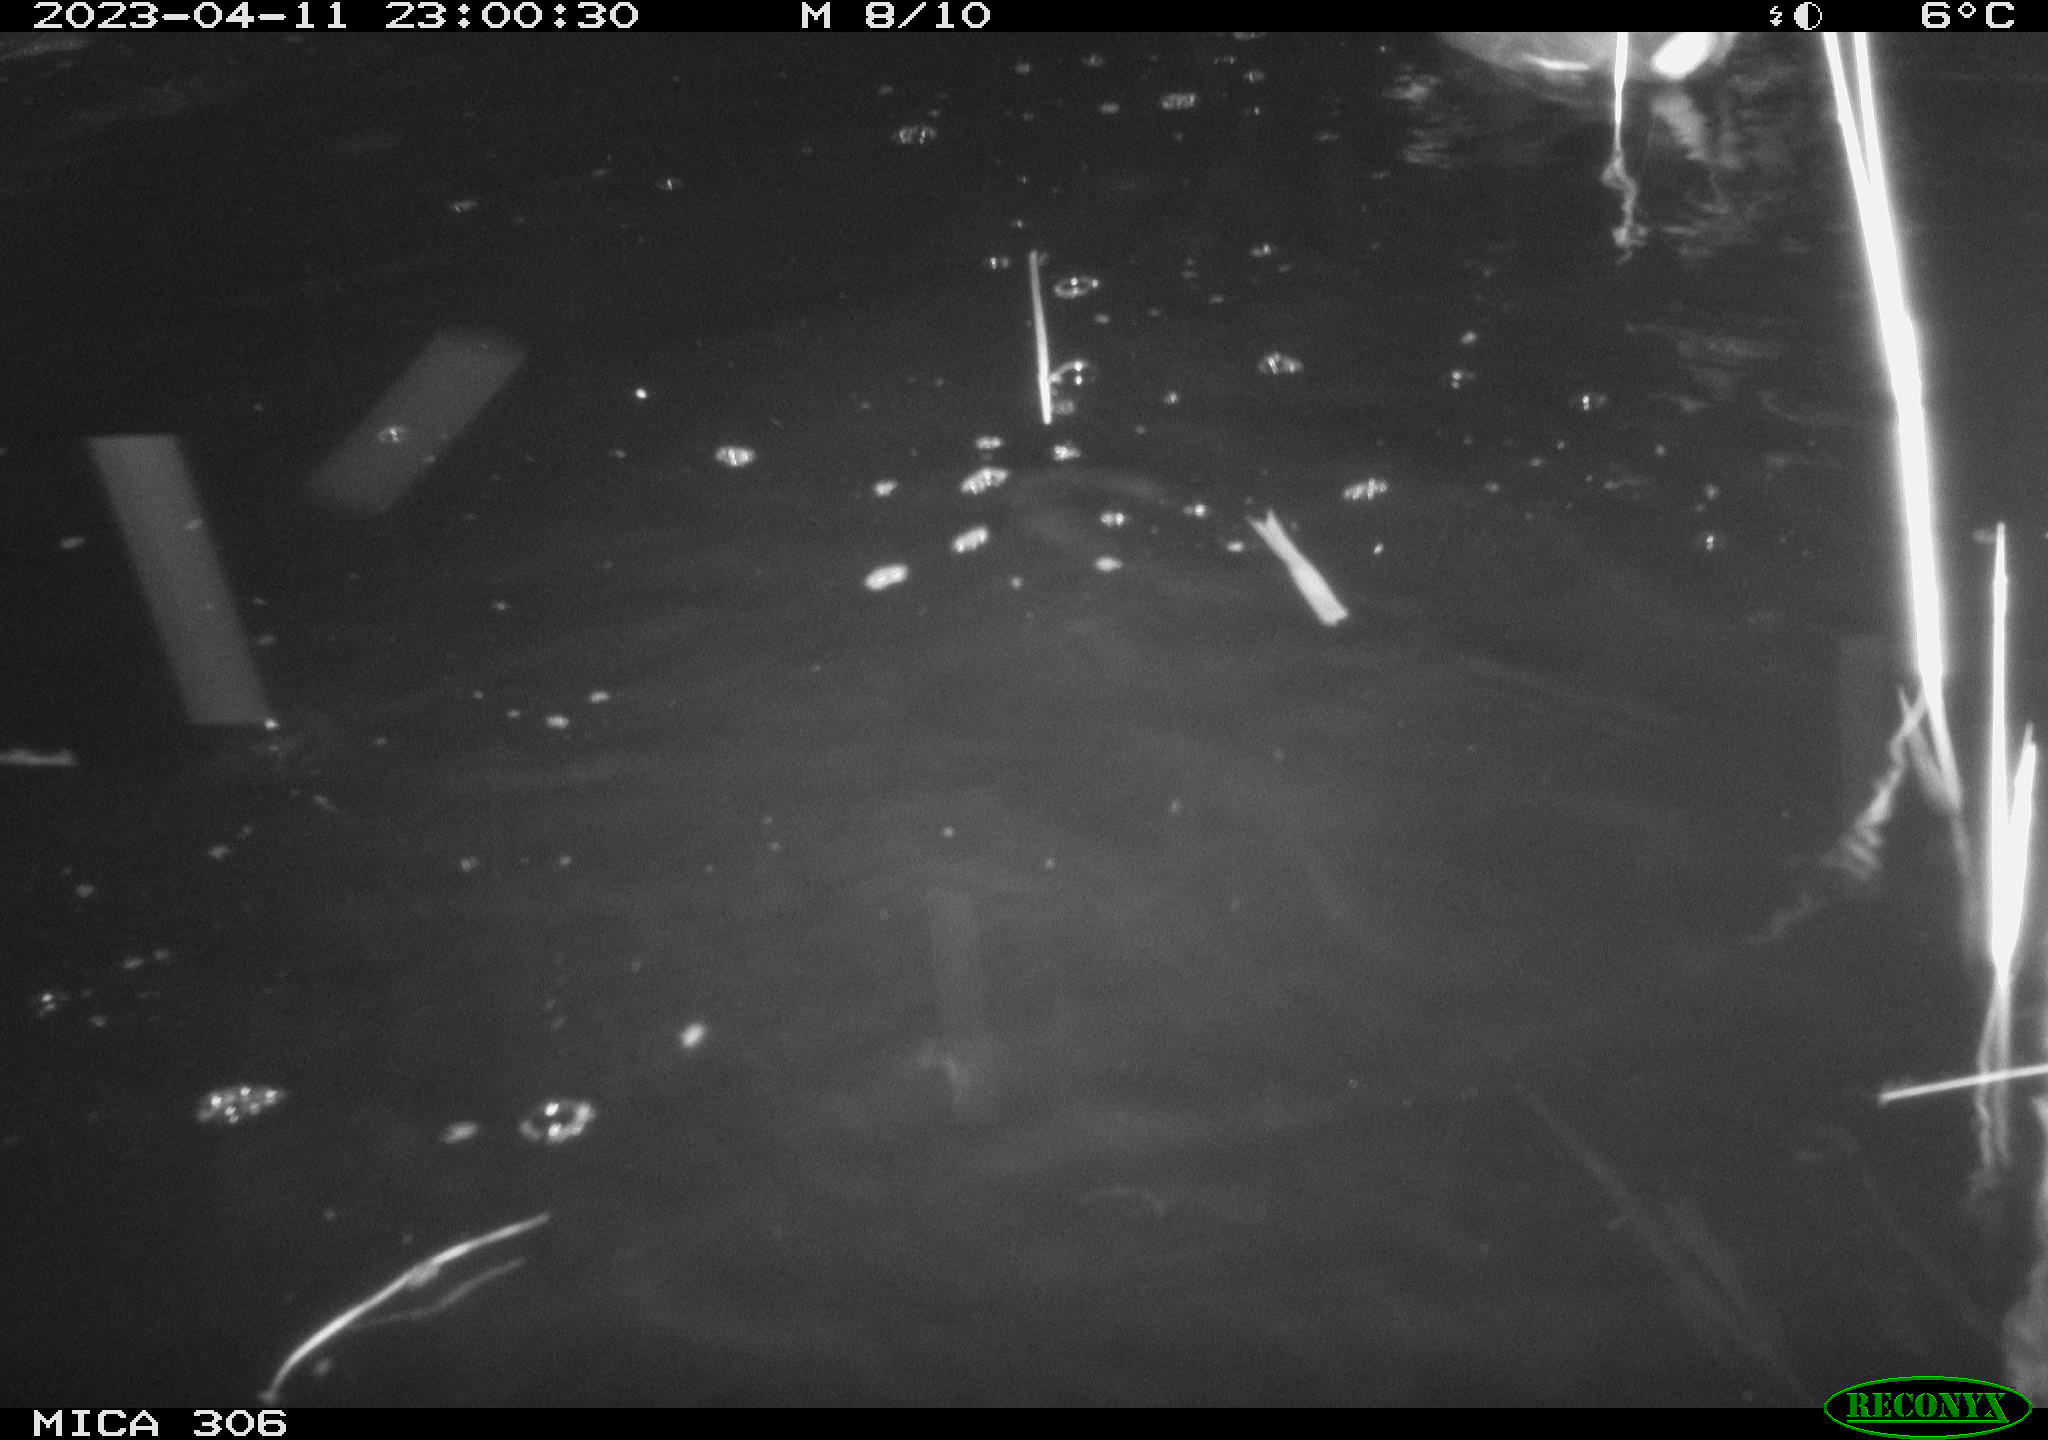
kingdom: Animalia
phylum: Chordata
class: Mammalia
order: Rodentia
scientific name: Rodentia
